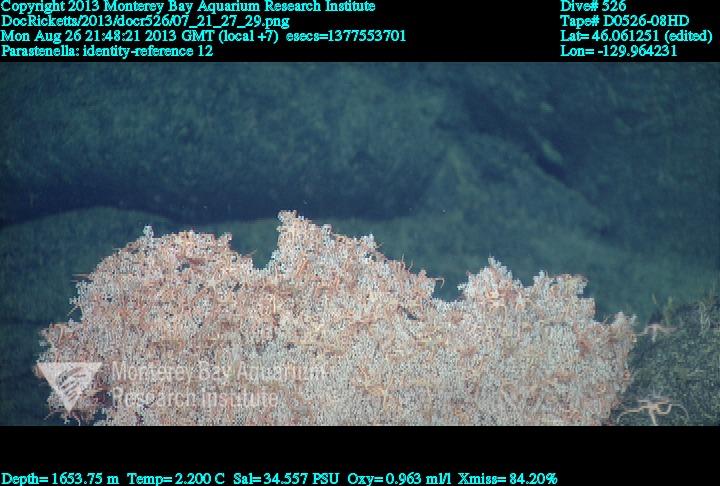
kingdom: Animalia
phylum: Cnidaria
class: Anthozoa
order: Scleralcyonacea
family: Primnoidae
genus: Parastenella
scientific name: Parastenella
